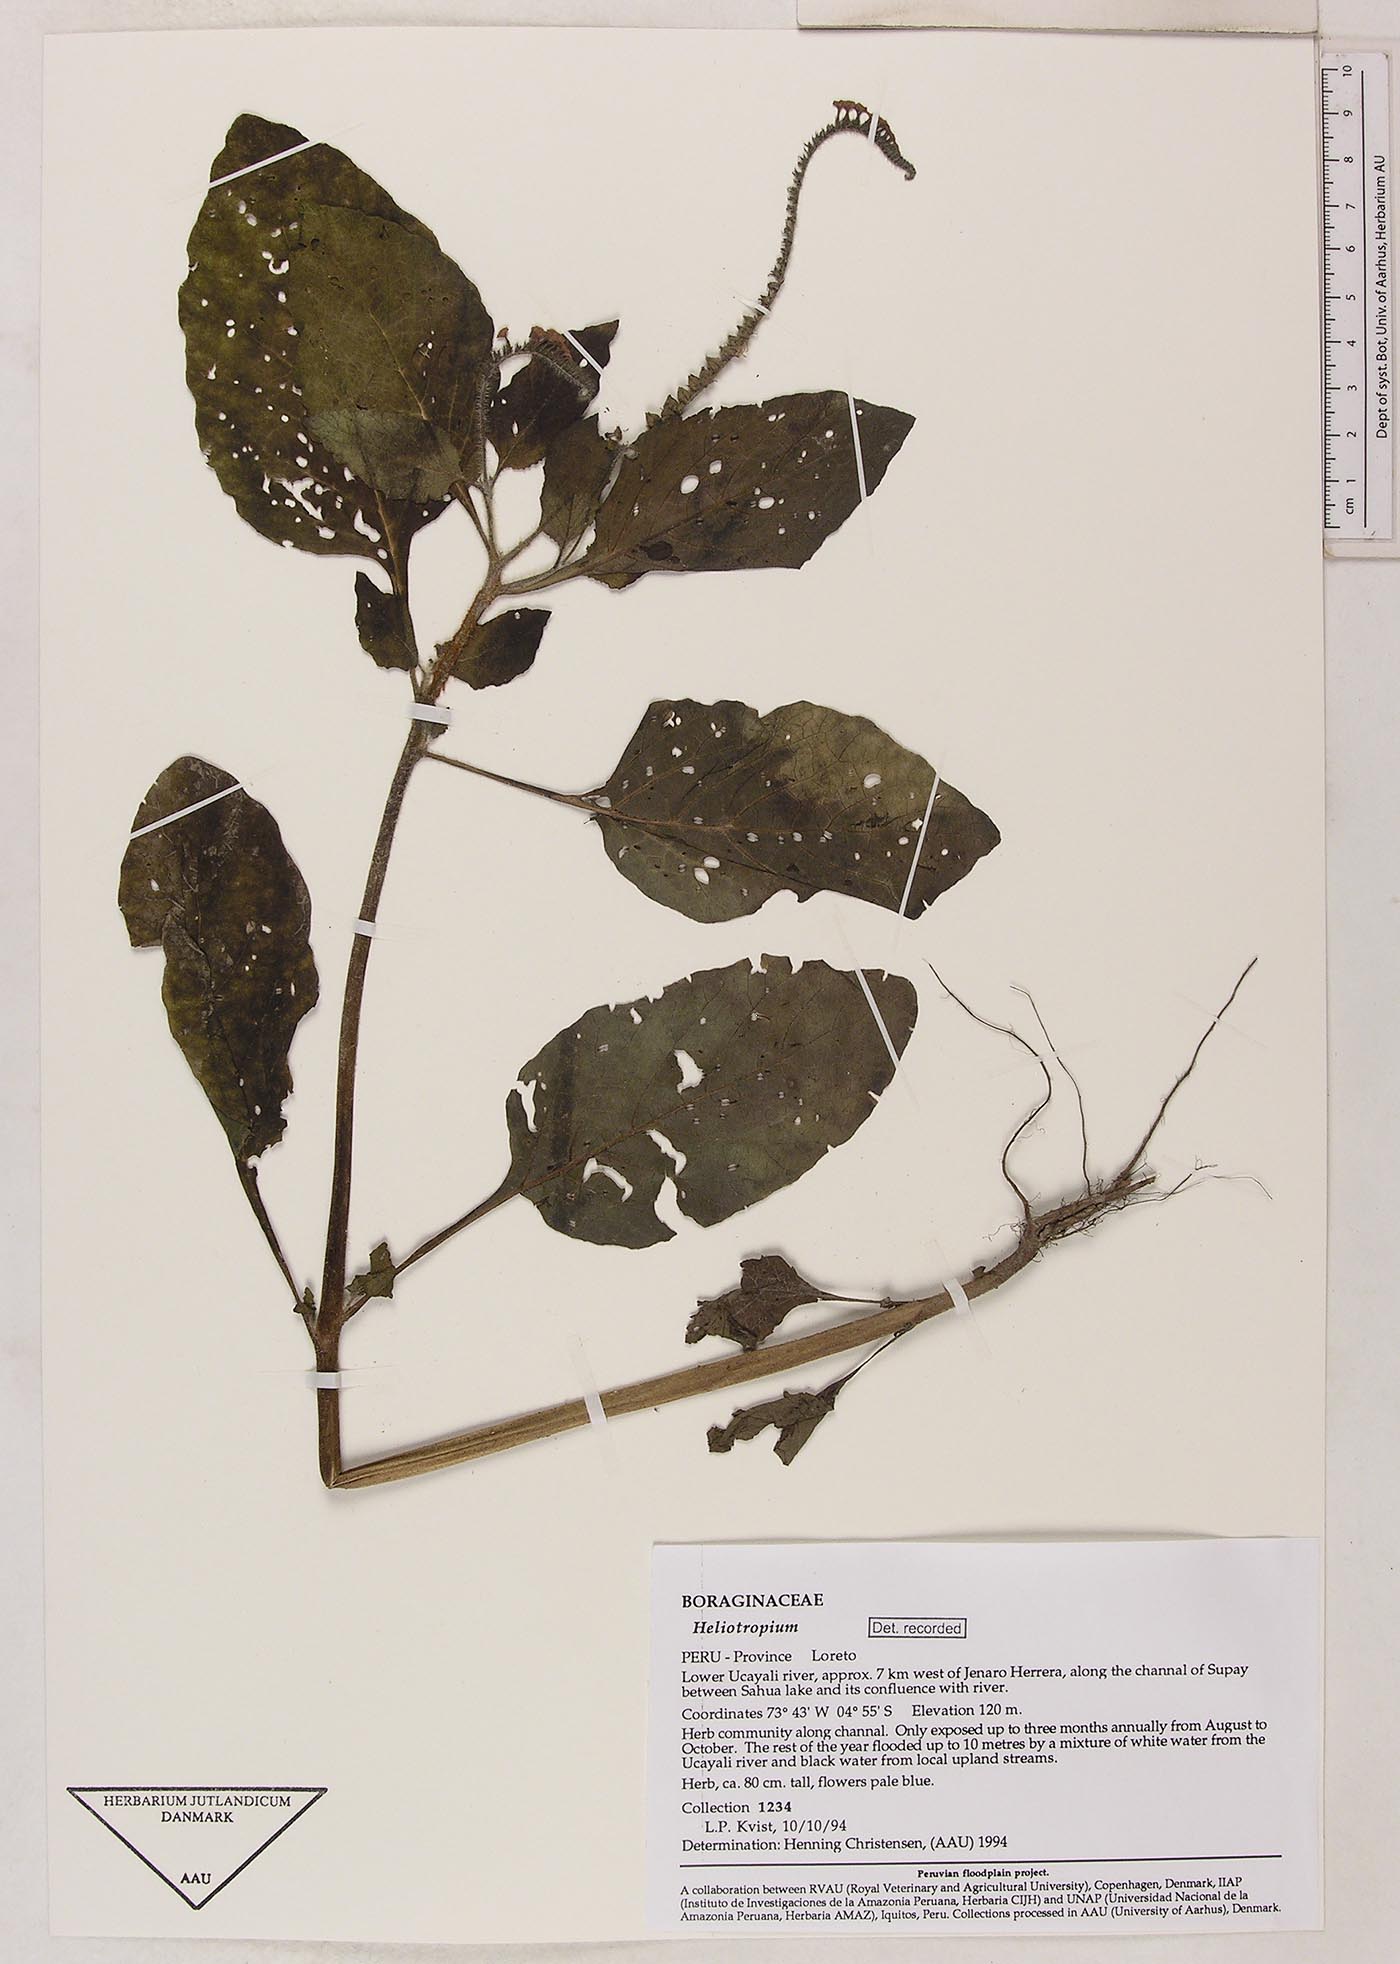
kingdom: Plantae
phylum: Tracheophyta
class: Magnoliopsida
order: Boraginales
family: Heliotropiaceae
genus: Heliotropium
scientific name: Heliotropium indicum
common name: Indian heliotrope
